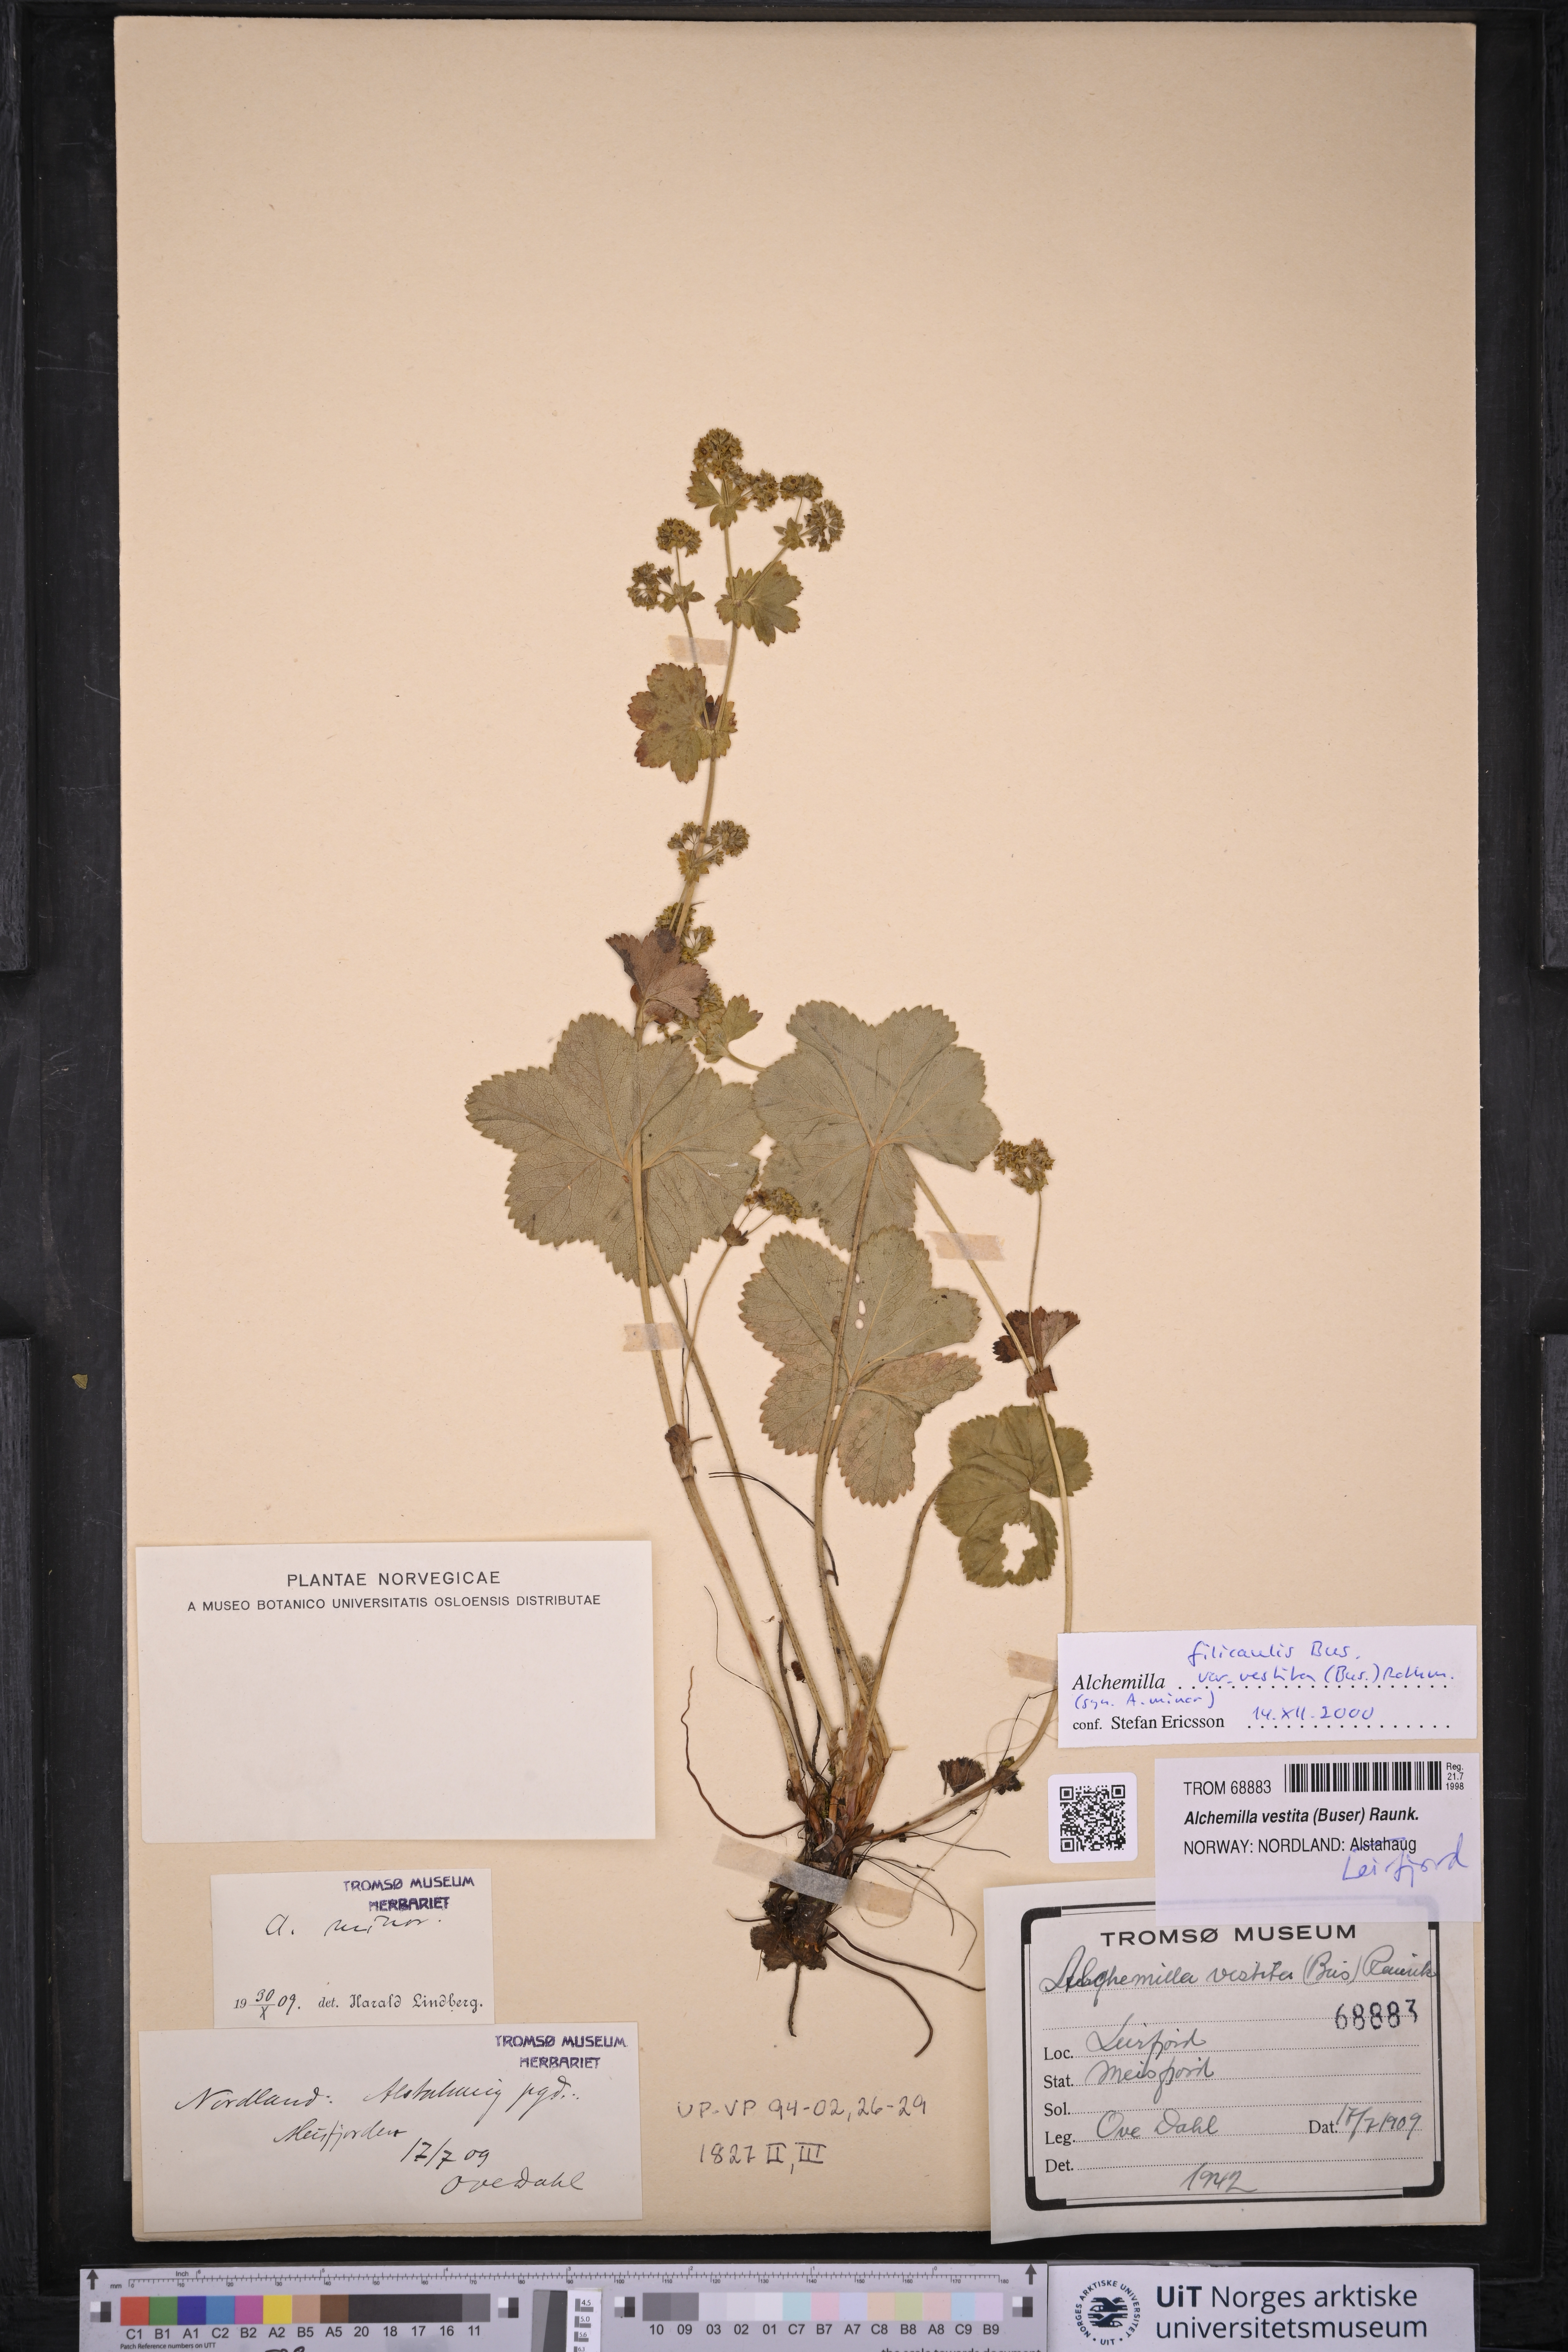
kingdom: Plantae
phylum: Tracheophyta
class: Magnoliopsida
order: Rosales
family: Rosaceae
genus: Alchemilla
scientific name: Alchemilla filicaulis
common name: Hairy lady's-mantle
